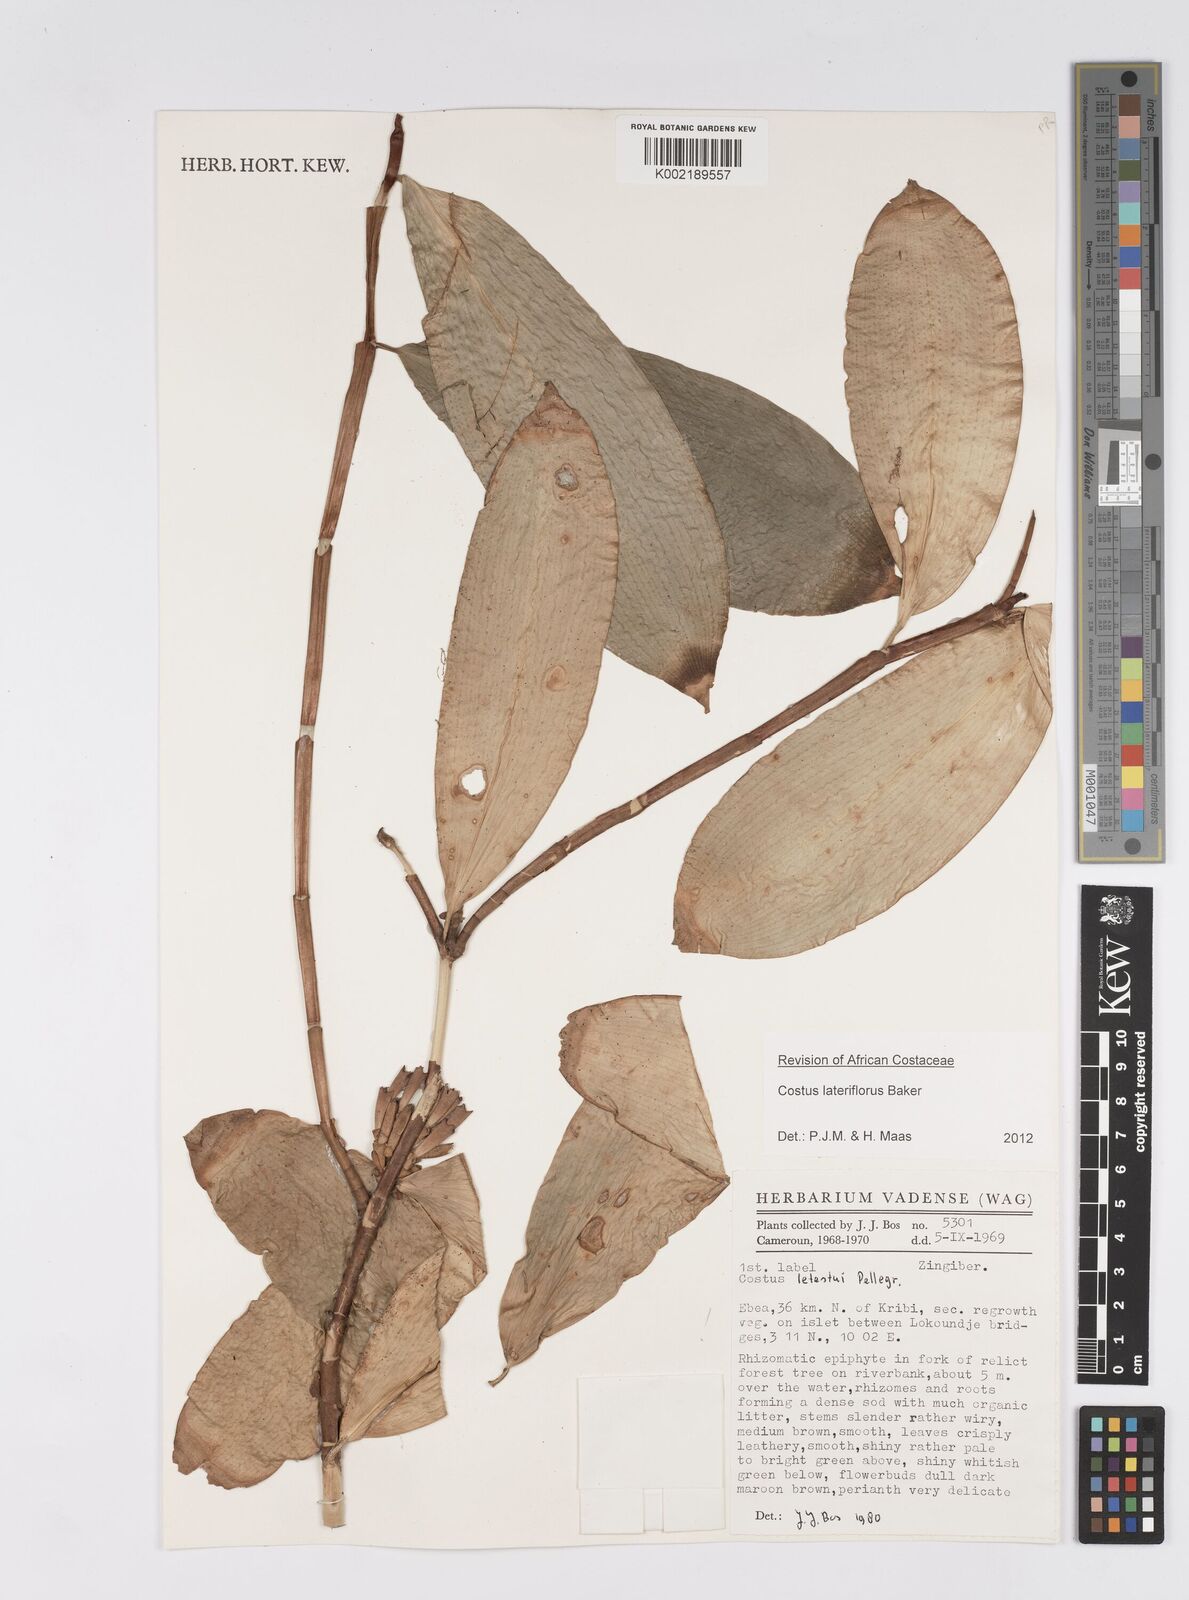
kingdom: Plantae
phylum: Tracheophyta
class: Liliopsida
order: Zingiberales
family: Costaceae
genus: Costus
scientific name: Costus lateriflorus
